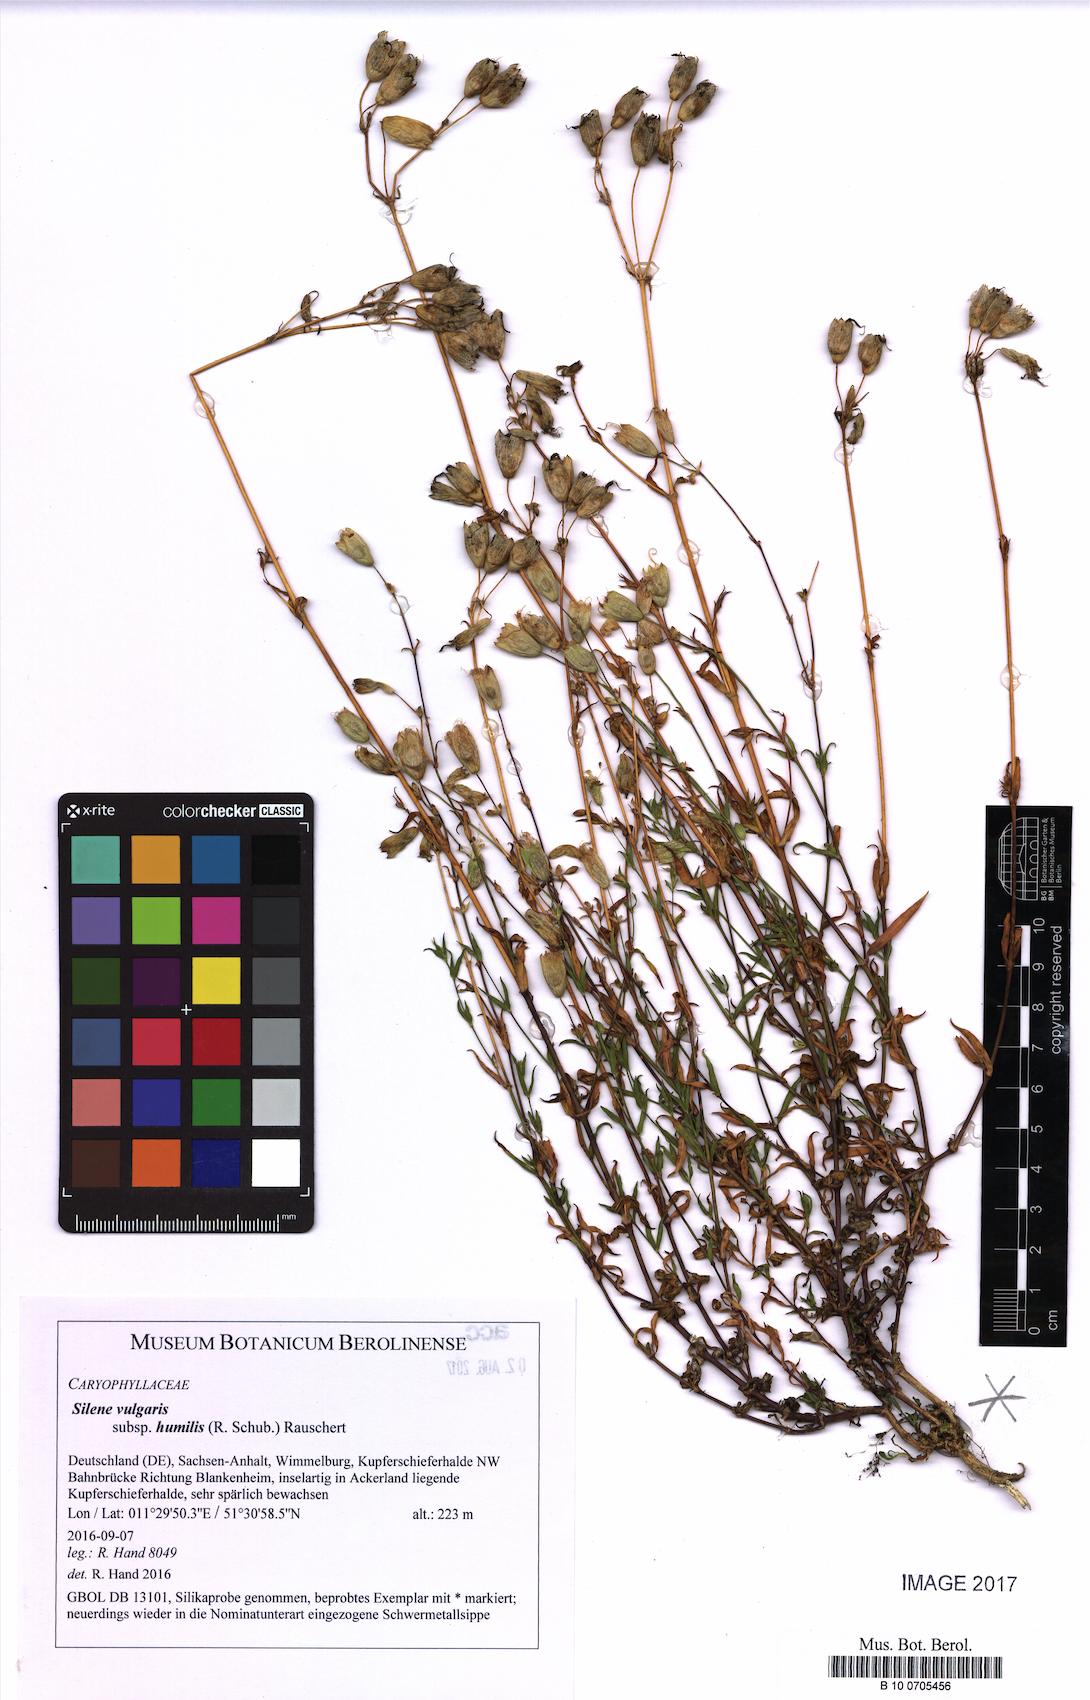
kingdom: Plantae
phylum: Tracheophyta
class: Magnoliopsida
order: Caryophyllales
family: Caryophyllaceae
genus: Silene
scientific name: Silene vulgaris
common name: Bladder campion
